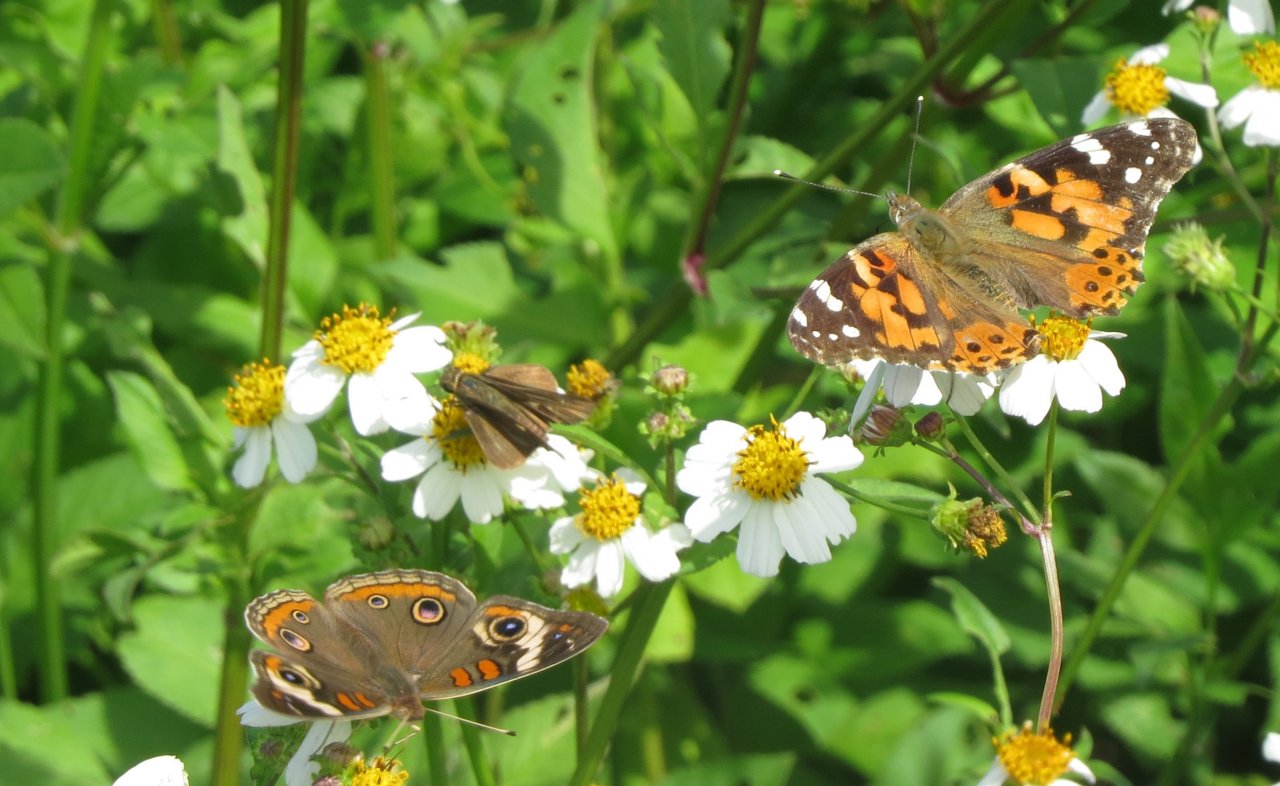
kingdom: Animalia
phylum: Arthropoda
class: Insecta
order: Lepidoptera
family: Hesperiidae
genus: Panoquina
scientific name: Panoquina ocola
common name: Ocola Skipper
